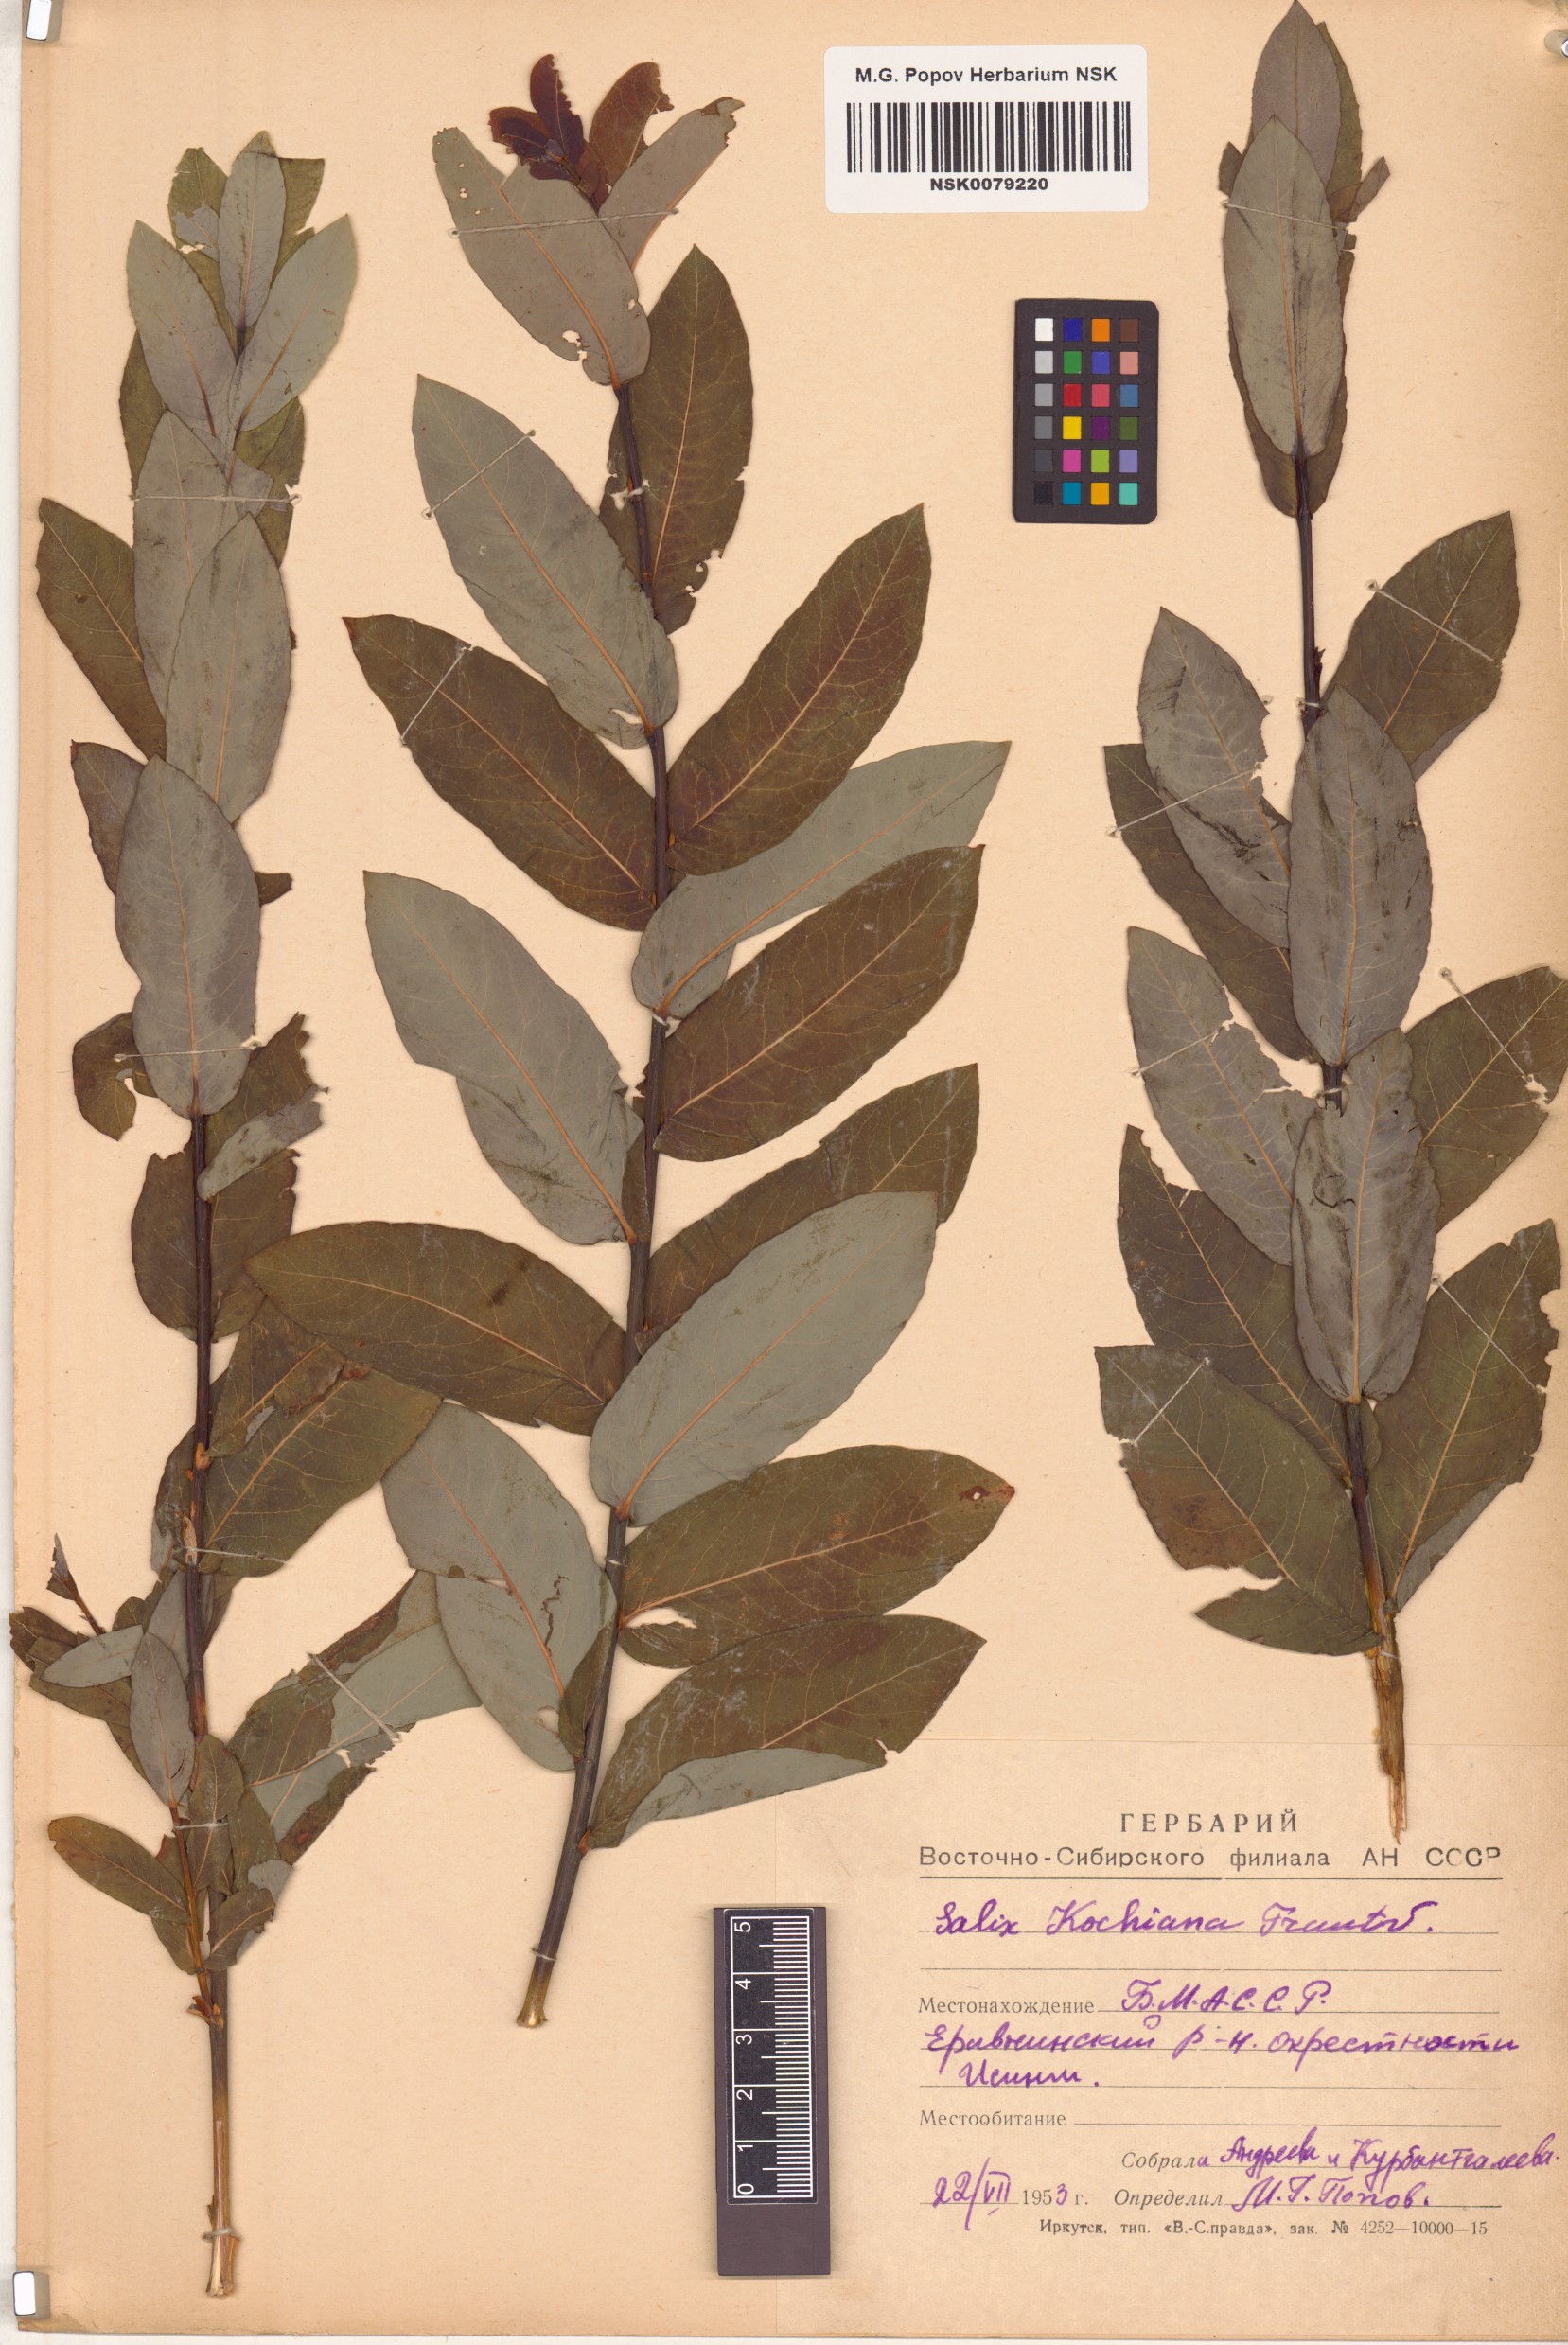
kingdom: Plantae
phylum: Tracheophyta
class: Magnoliopsida
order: Malpighiales
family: Salicaceae
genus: Salix
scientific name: Salix kochiana
